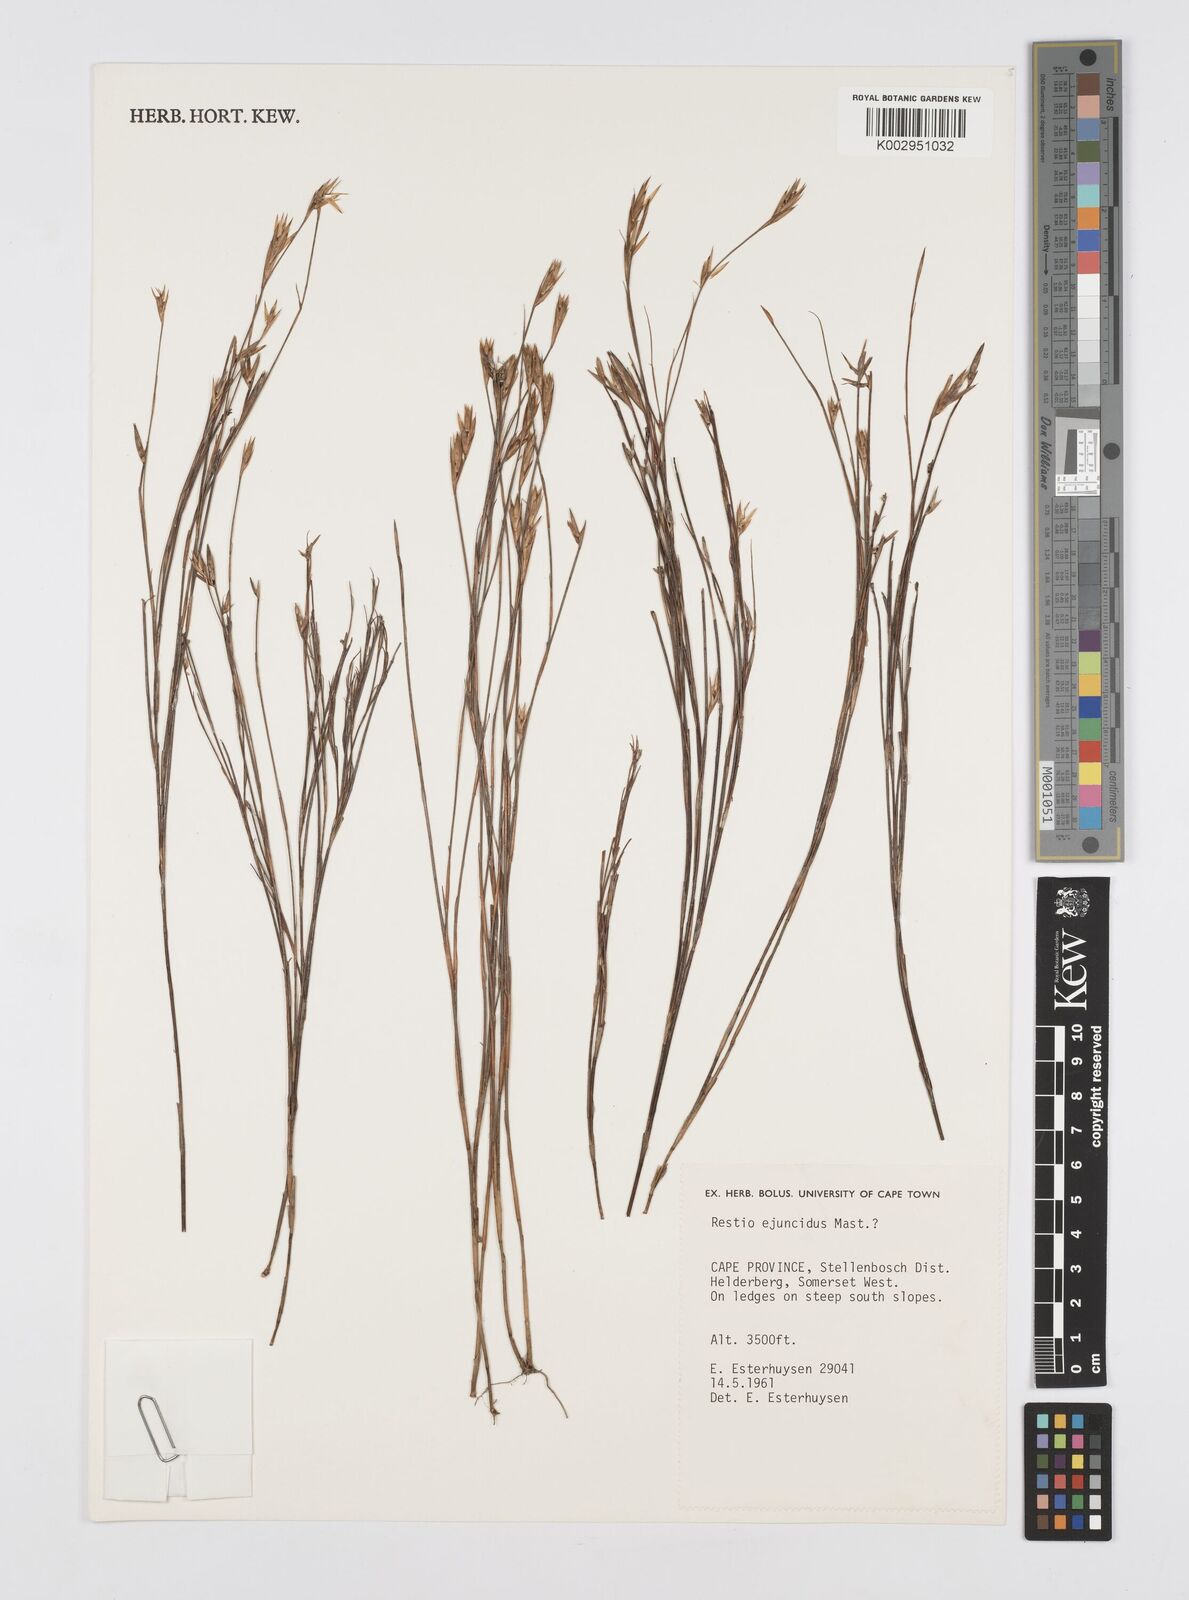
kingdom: Plantae
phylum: Tracheophyta
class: Liliopsida
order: Poales
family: Restionaceae
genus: Restio
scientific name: Restio ejuncidus
